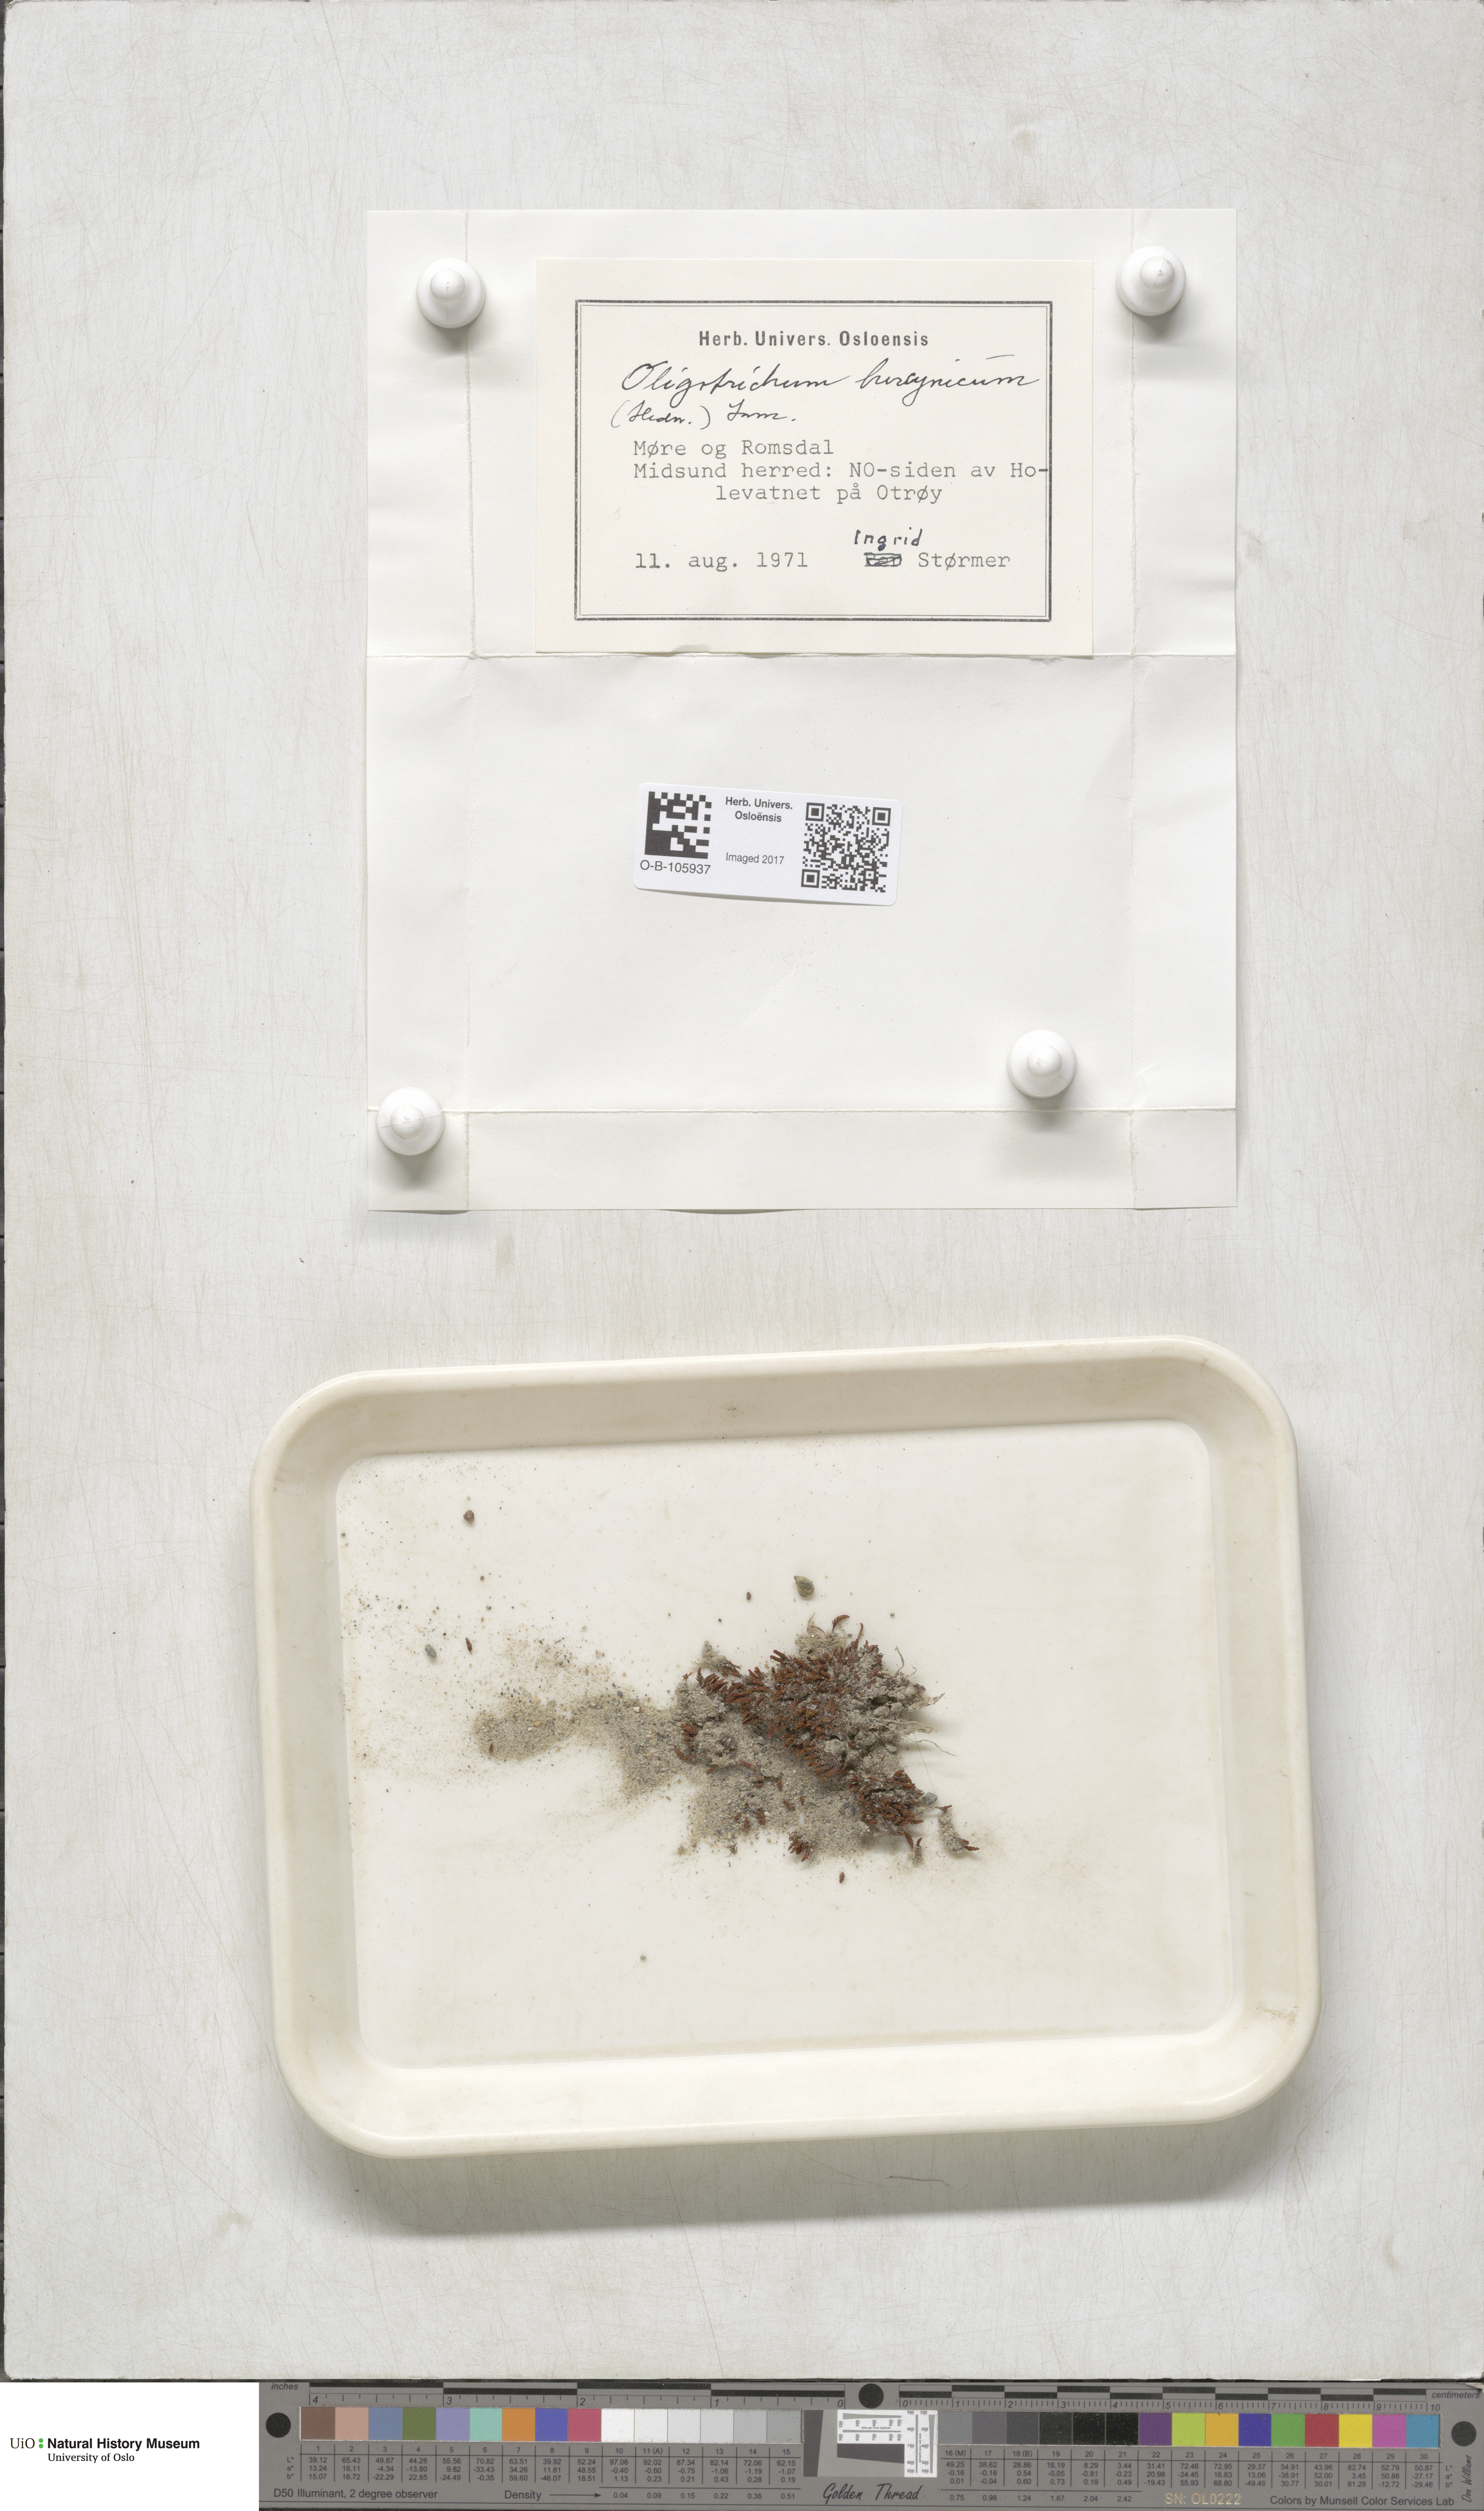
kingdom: Plantae
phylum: Bryophyta
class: Polytrichopsida
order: Polytrichales
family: Polytrichaceae
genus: Oligotrichum
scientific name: Oligotrichum hercynicum
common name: Hercynian hair moss
